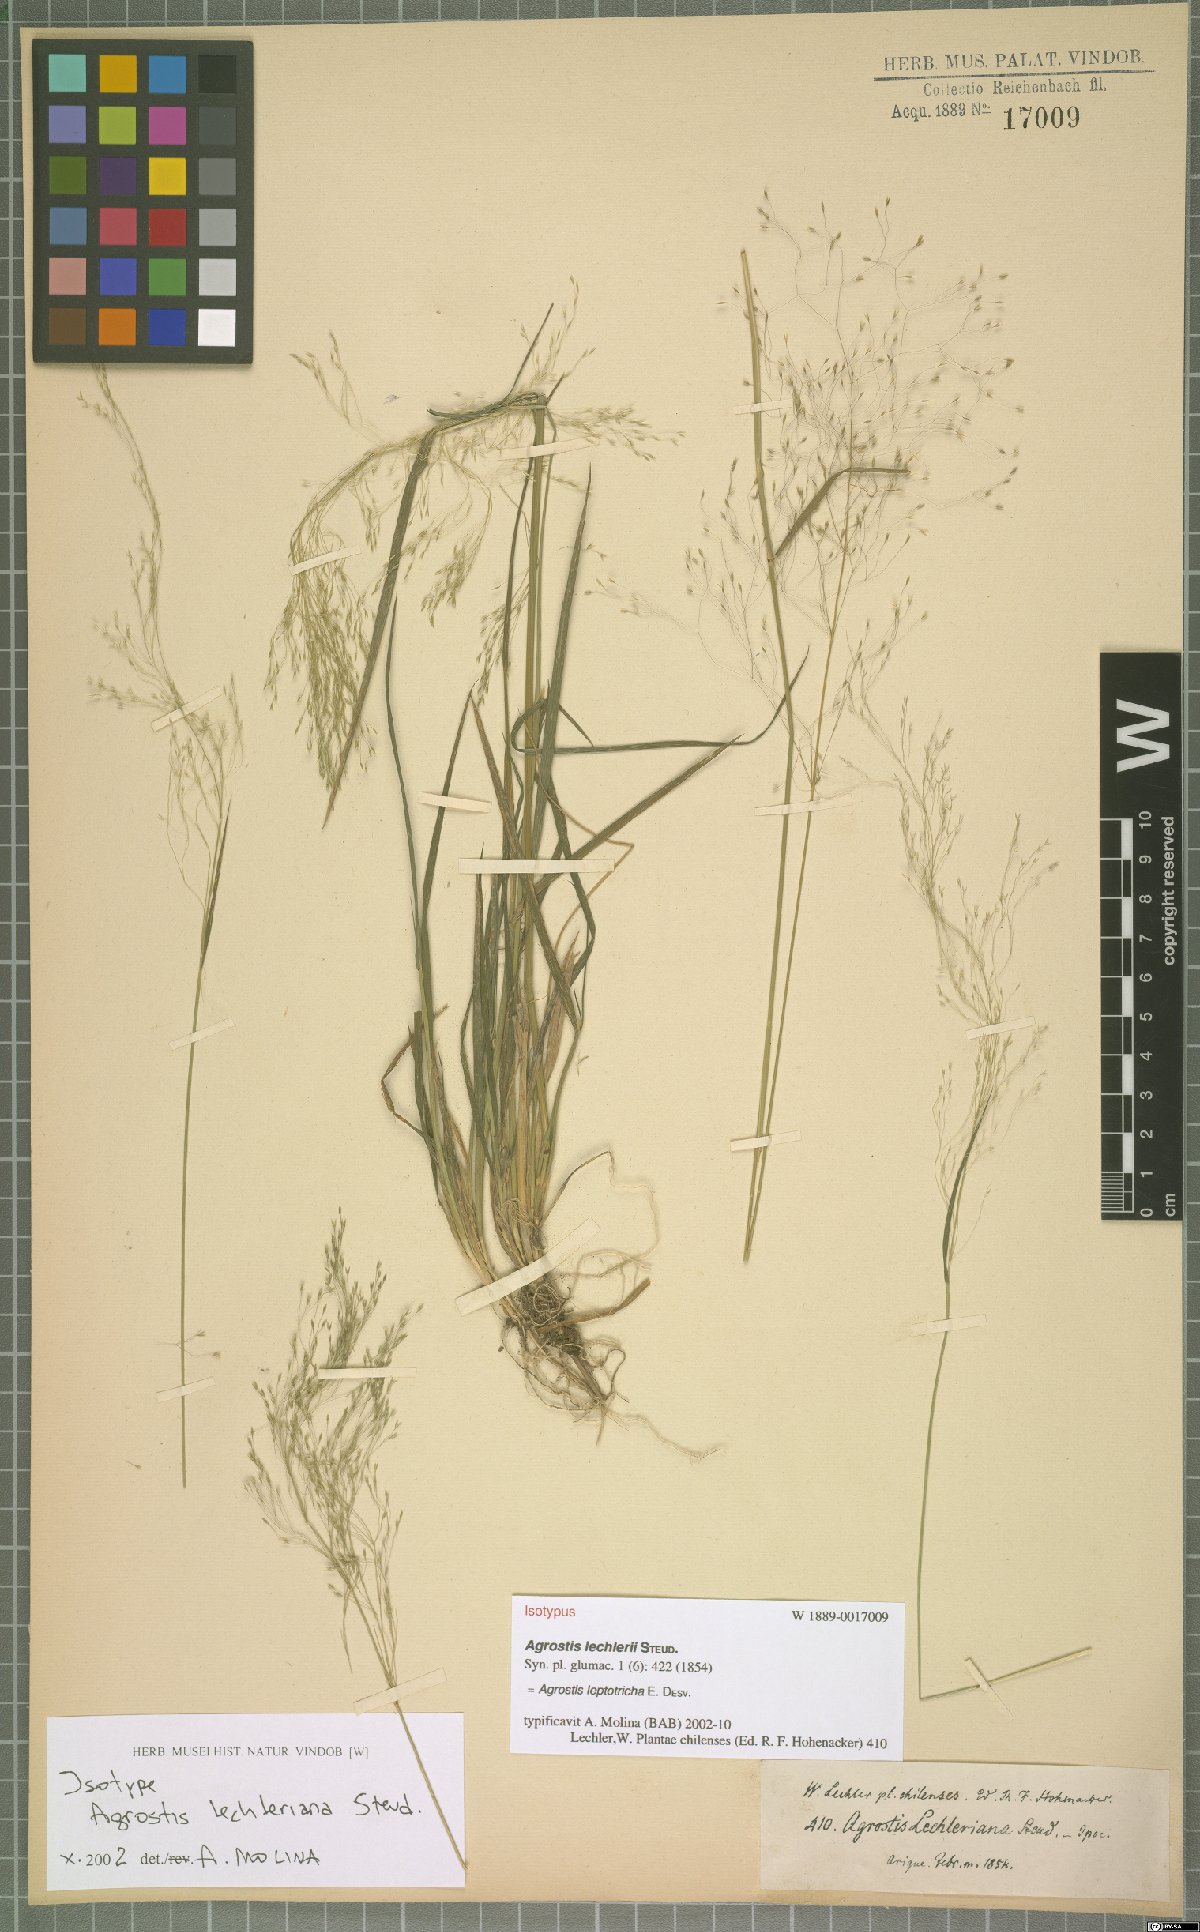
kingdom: Plantae
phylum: Tracheophyta
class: Liliopsida
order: Poales
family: Poaceae
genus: Agrostis
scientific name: Agrostis leptotricha
